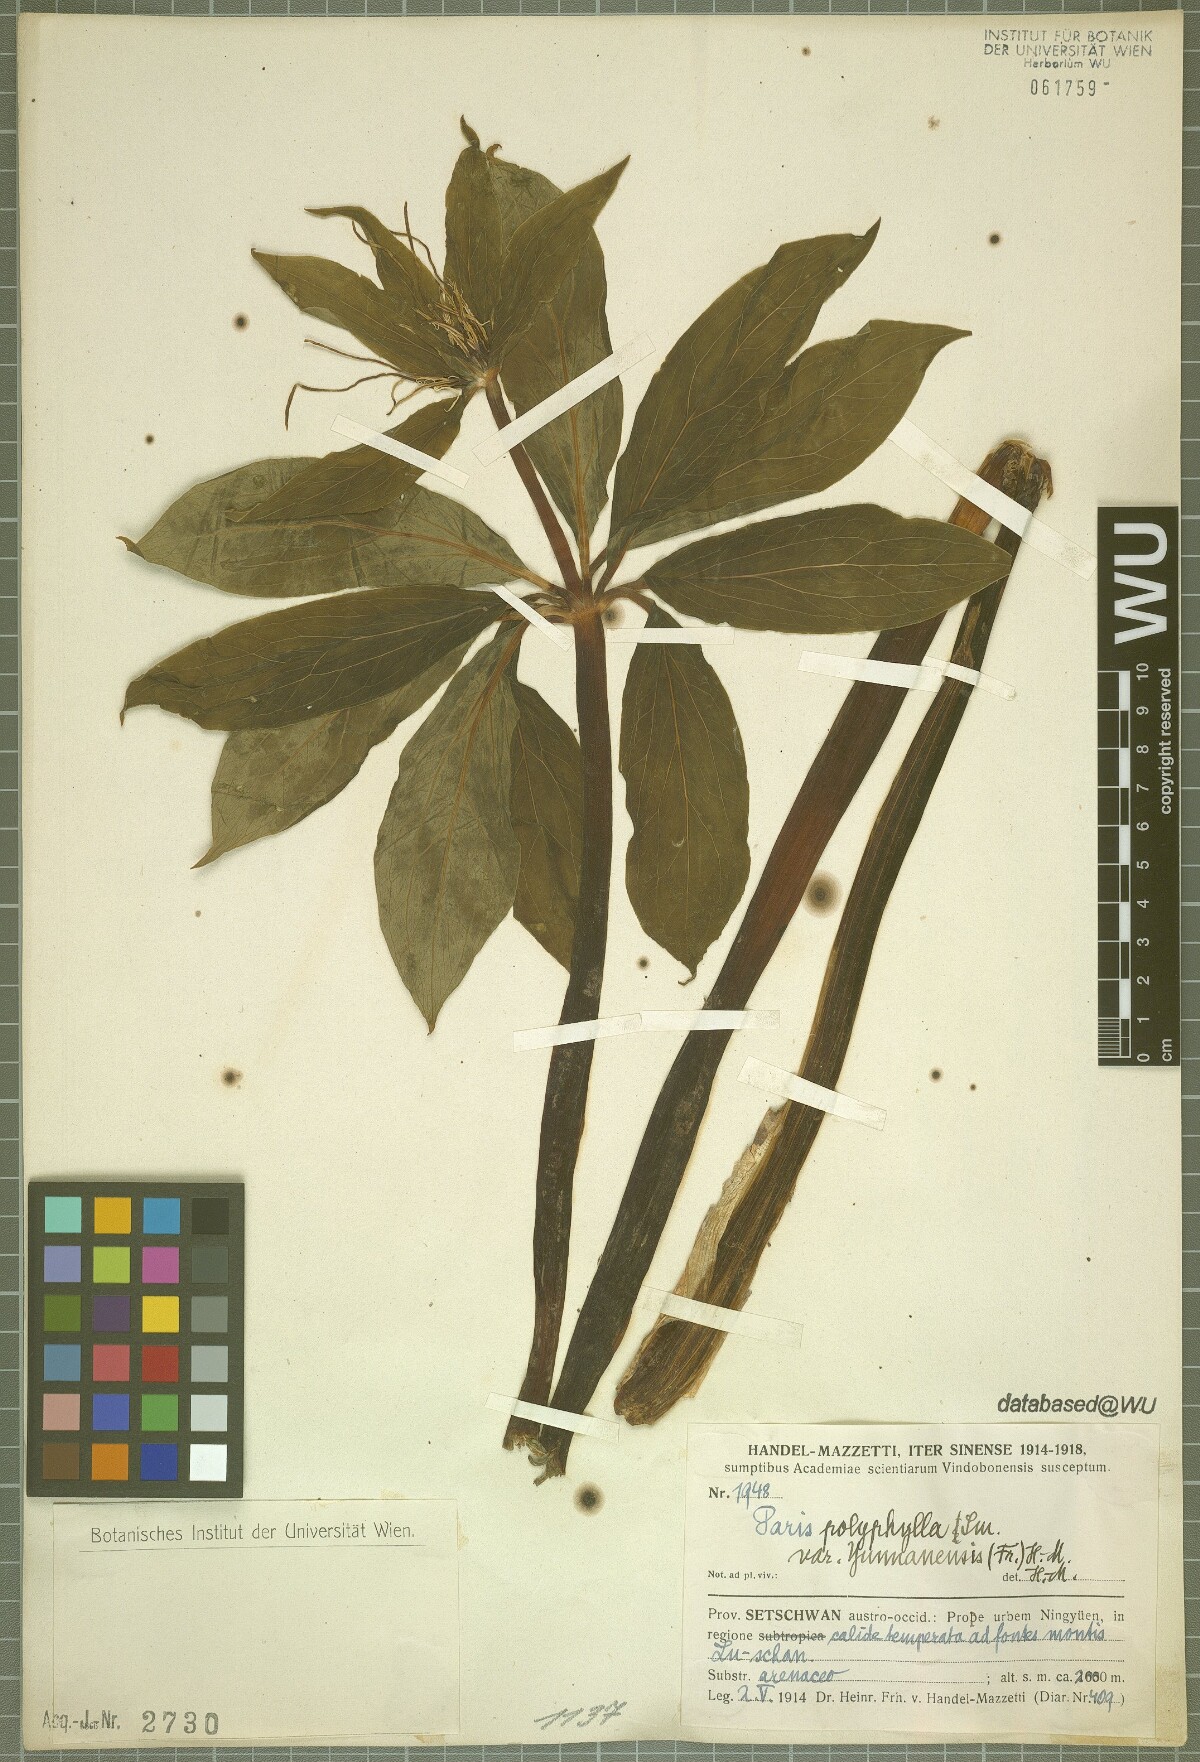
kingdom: Plantae
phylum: Tracheophyta
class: Liliopsida
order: Liliales
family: Melanthiaceae
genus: Paris
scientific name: Paris yunnanensis
